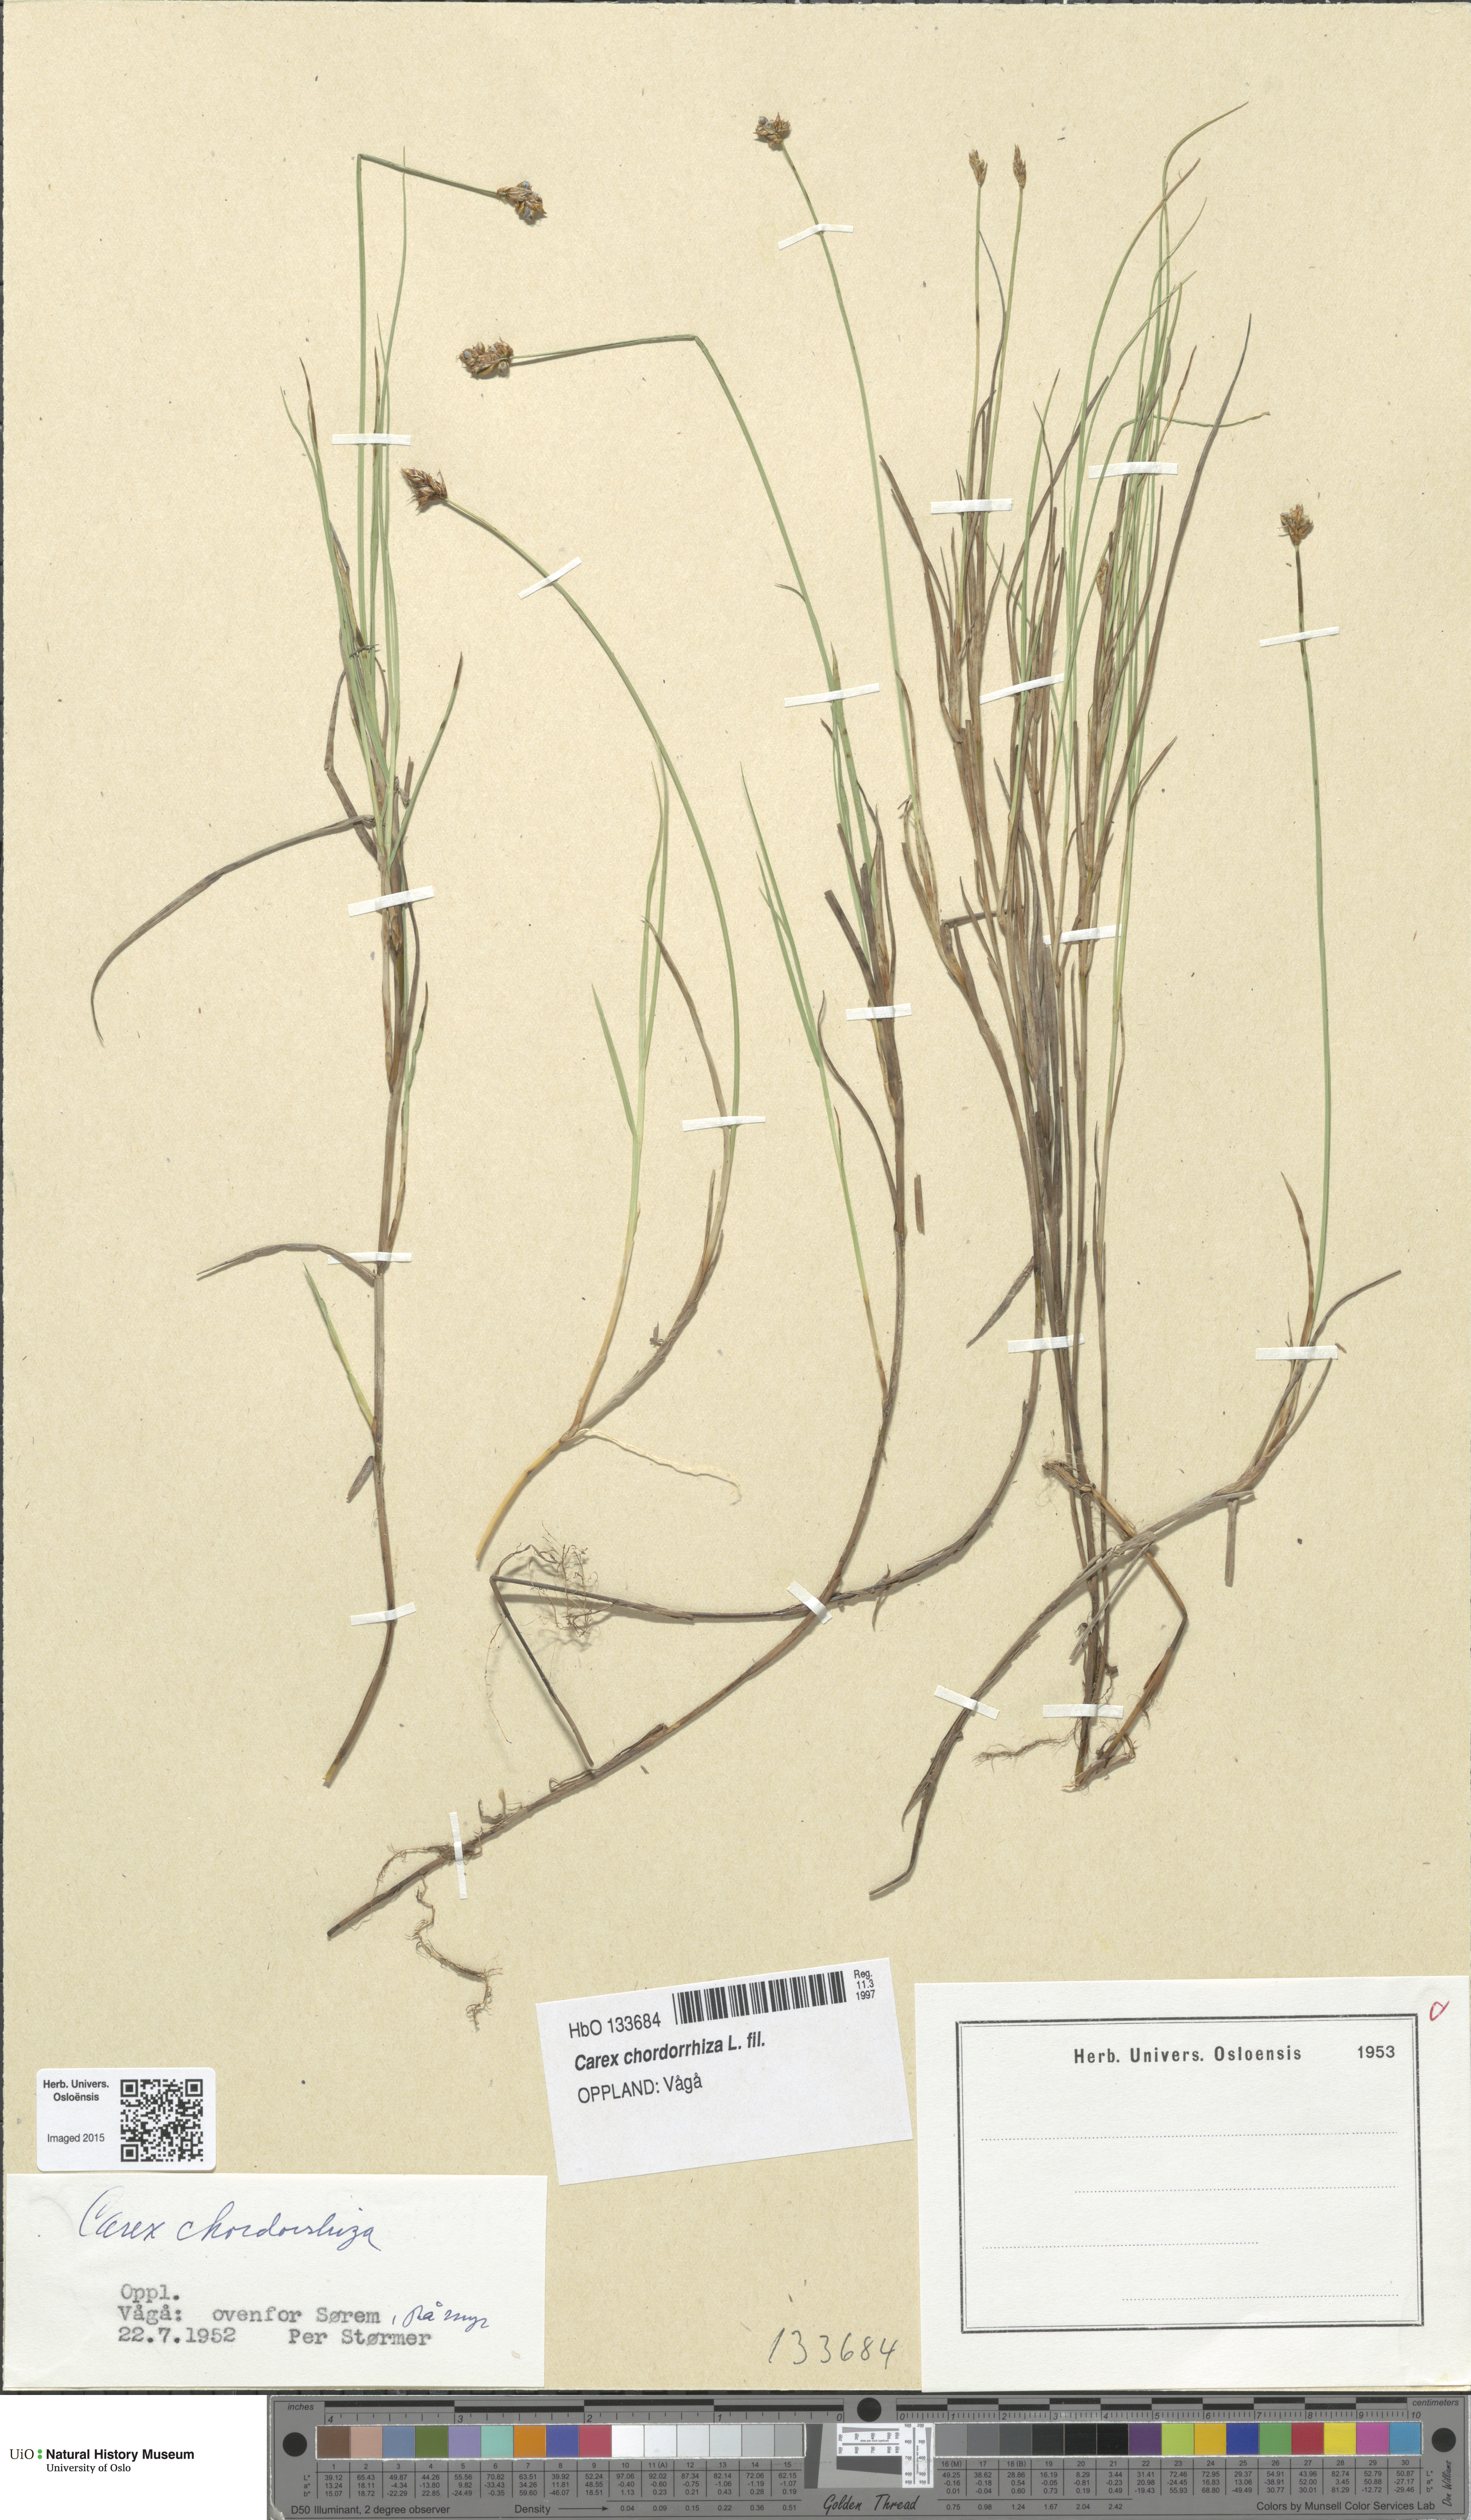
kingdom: Plantae
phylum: Tracheophyta
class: Liliopsida
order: Poales
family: Cyperaceae
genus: Carex
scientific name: Carex chordorrhiza
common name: String sedge
